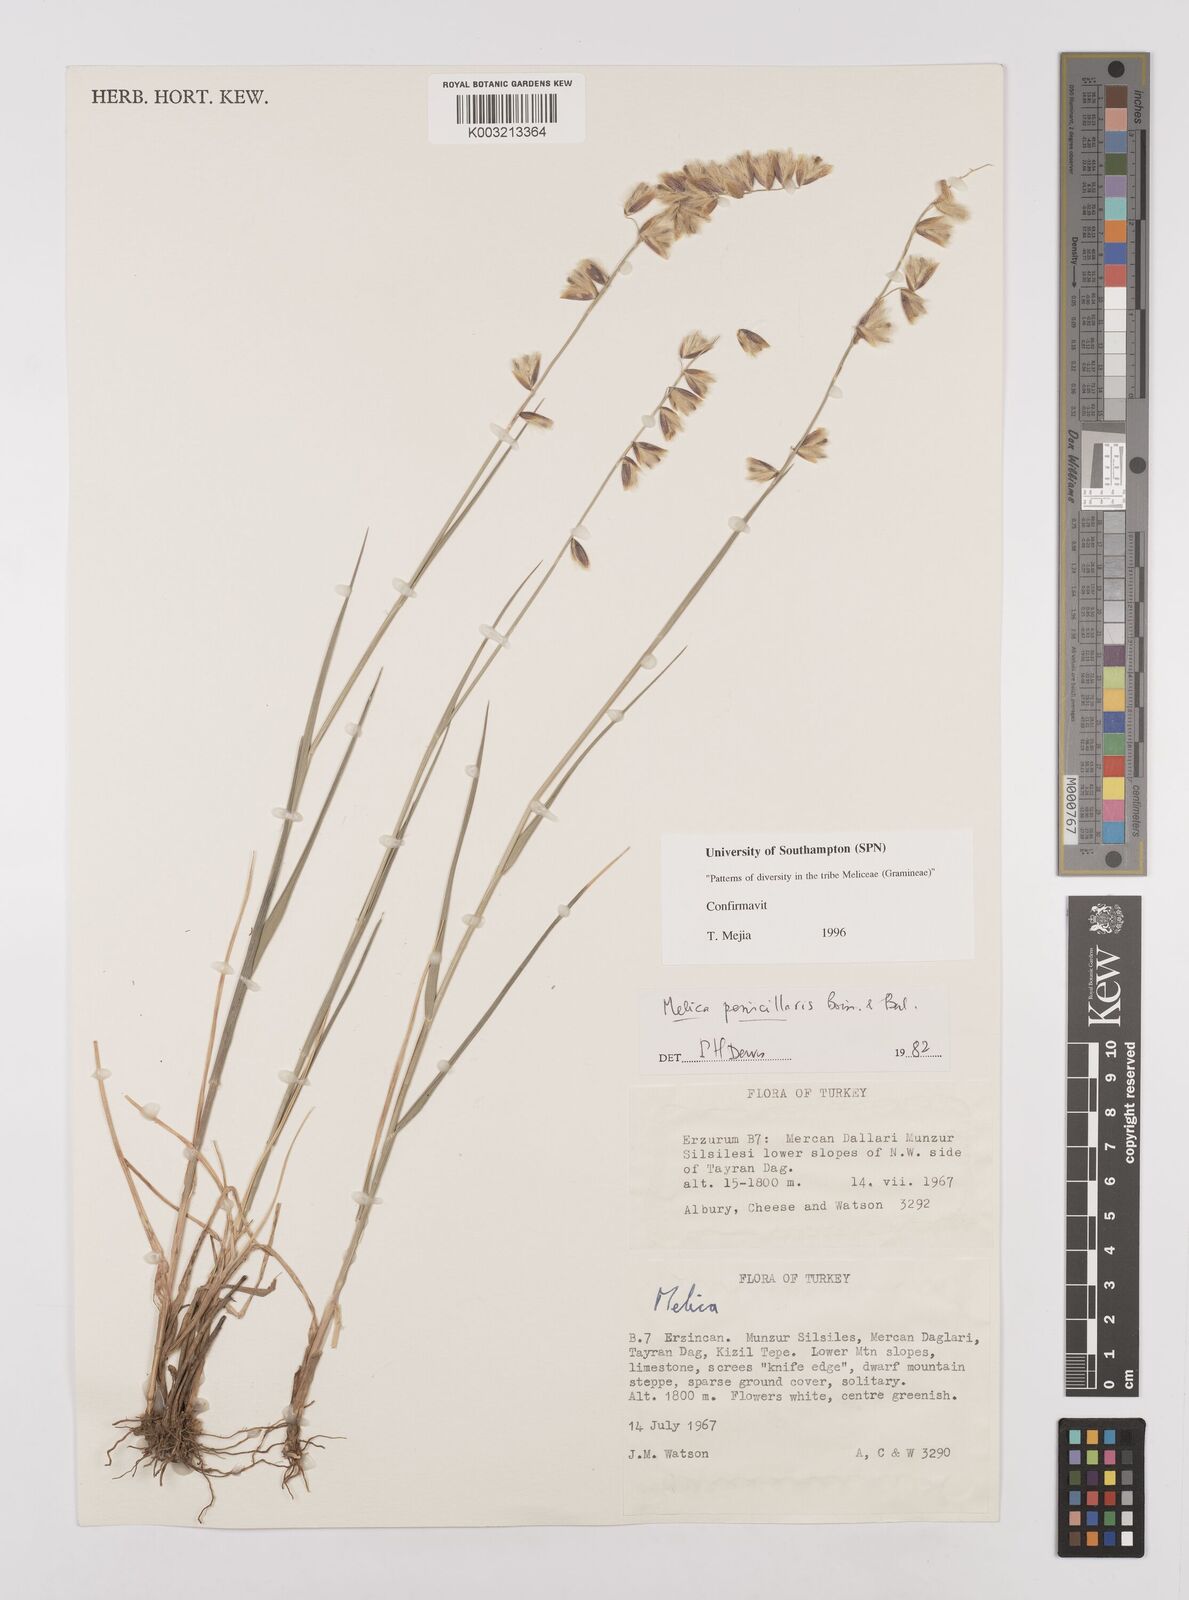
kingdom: Plantae
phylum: Tracheophyta
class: Liliopsida
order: Poales
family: Poaceae
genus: Melica
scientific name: Melica penicillaris
